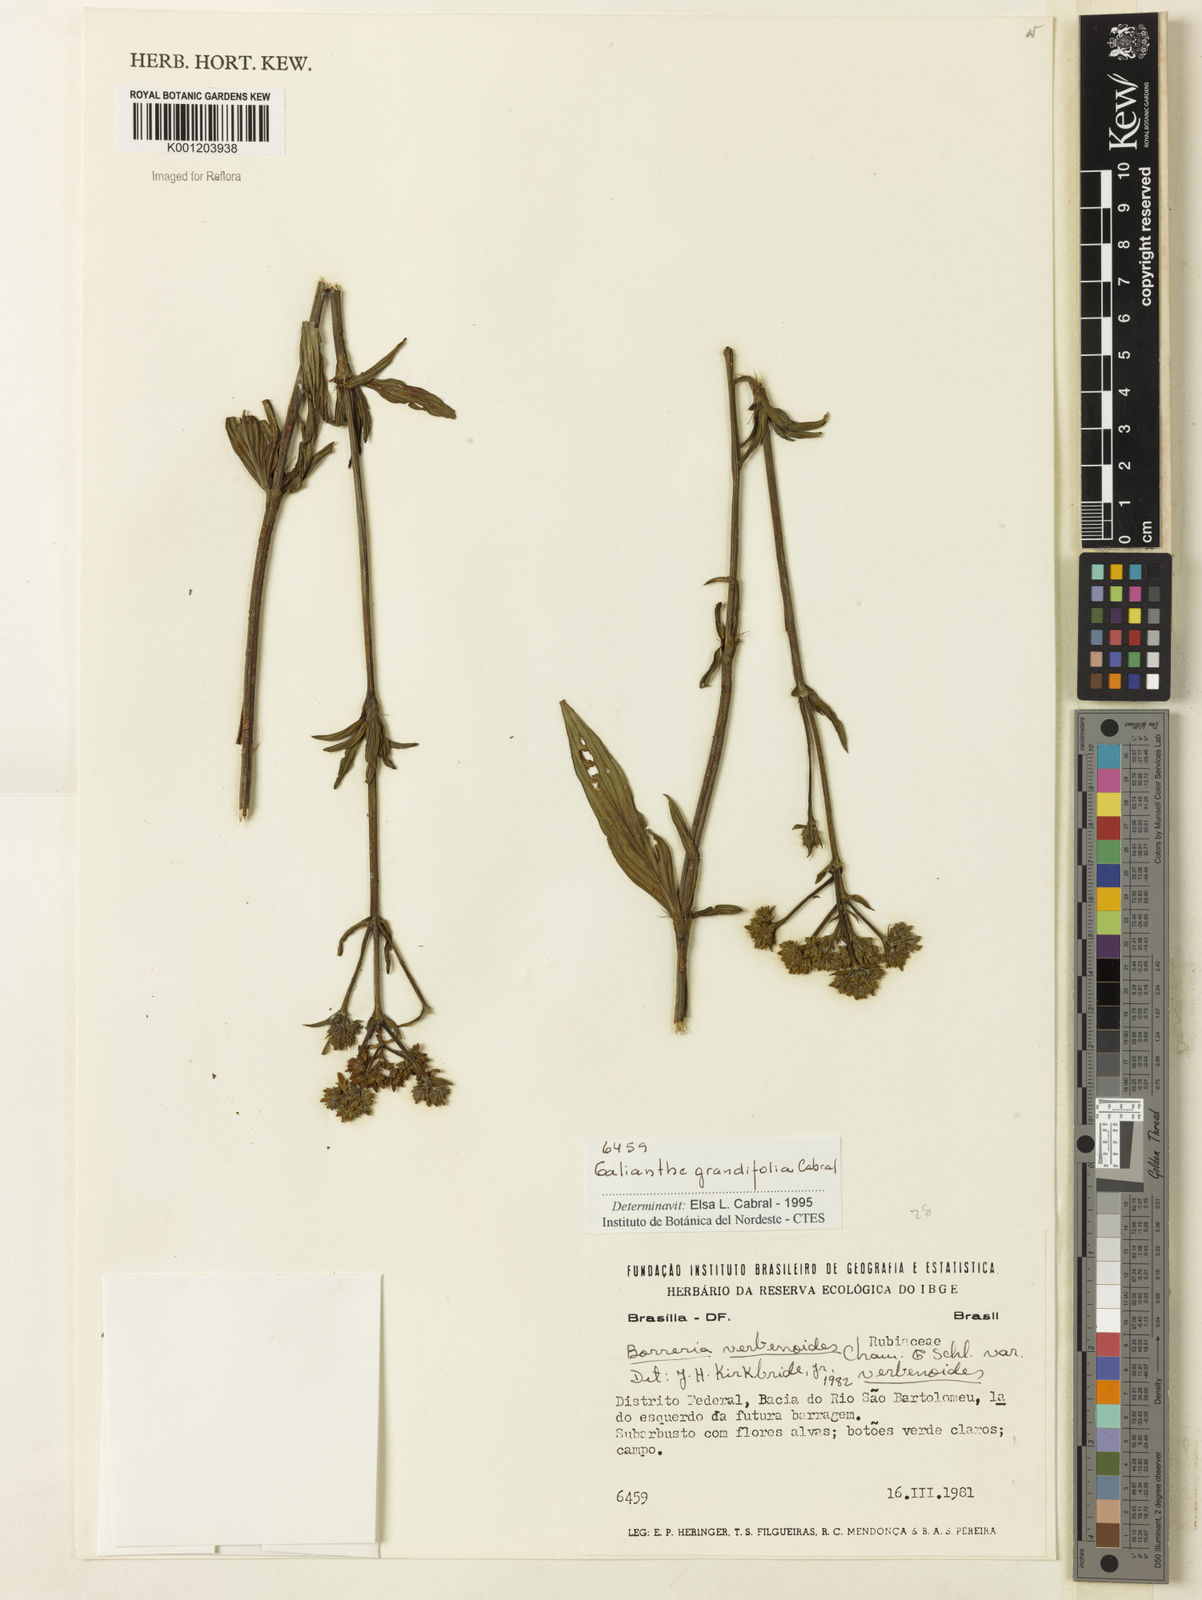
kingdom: Plantae
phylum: Tracheophyta
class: Magnoliopsida
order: Gentianales
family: Rubiaceae
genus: Galianthe
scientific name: Galianthe grandifolia
